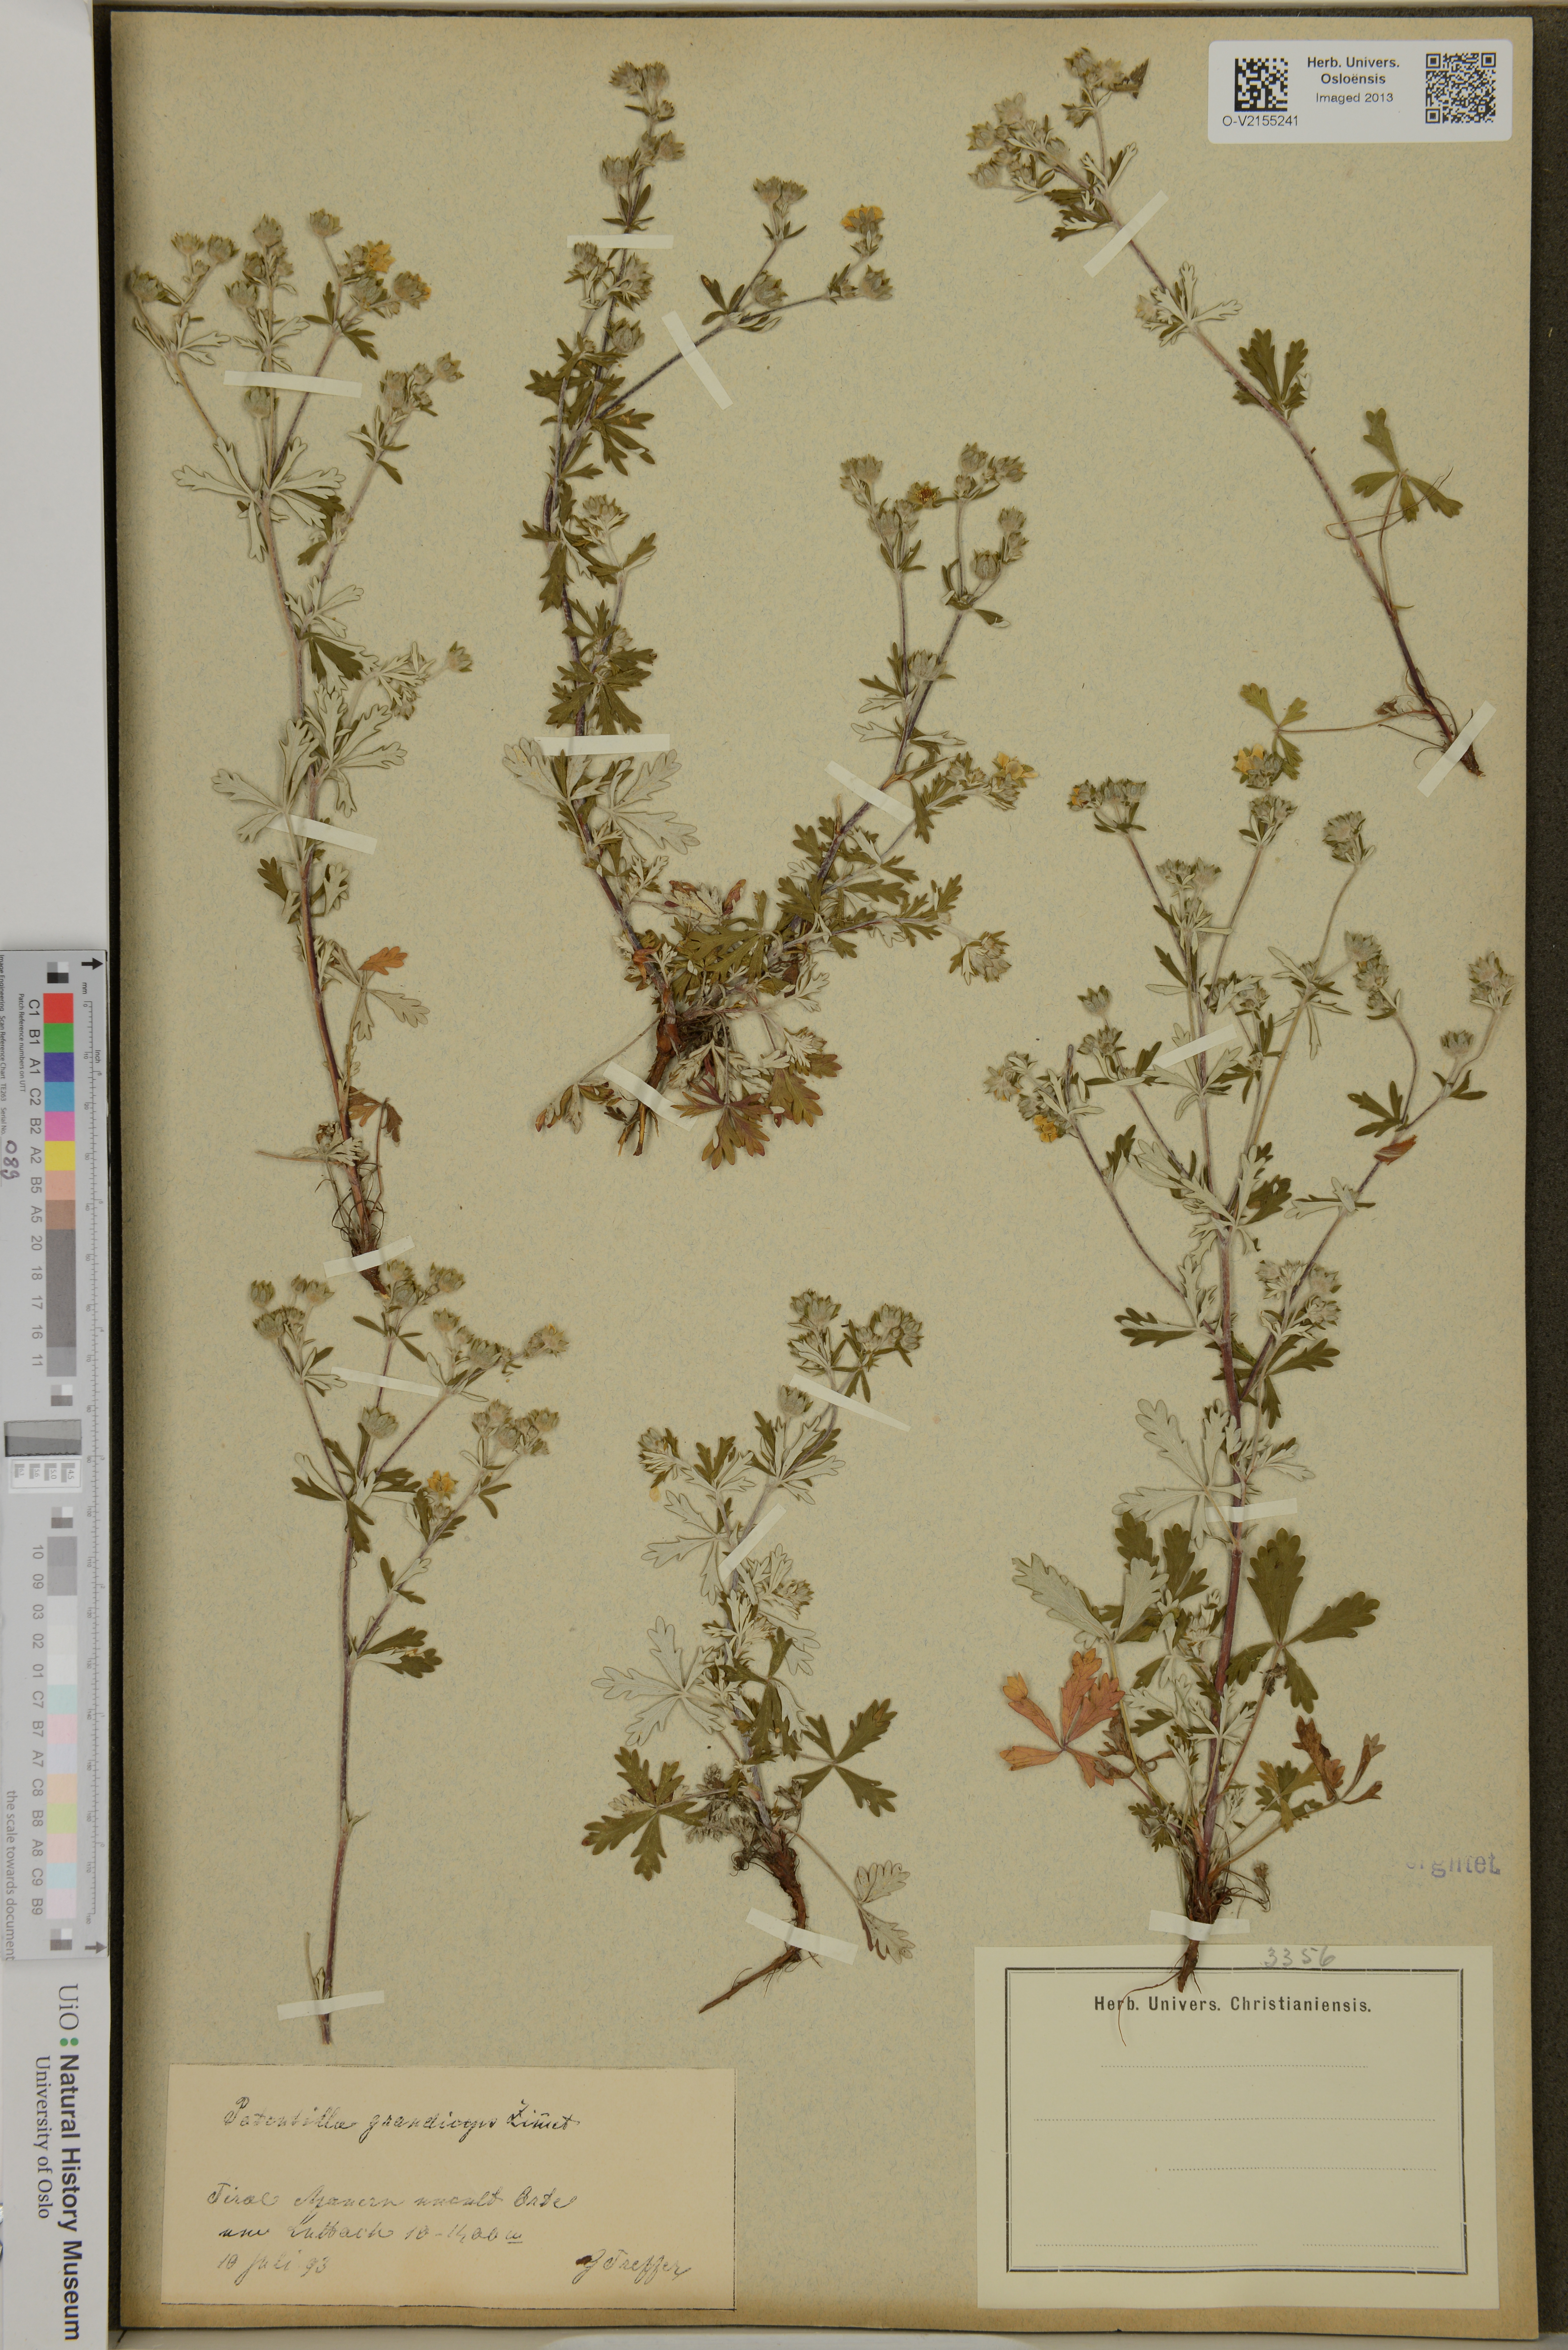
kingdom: Plantae
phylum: Tracheophyta
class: Magnoliopsida
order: Rosales
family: Rosaceae
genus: Potentilla
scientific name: Potentilla argentea
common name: Hoary cinquefoil
